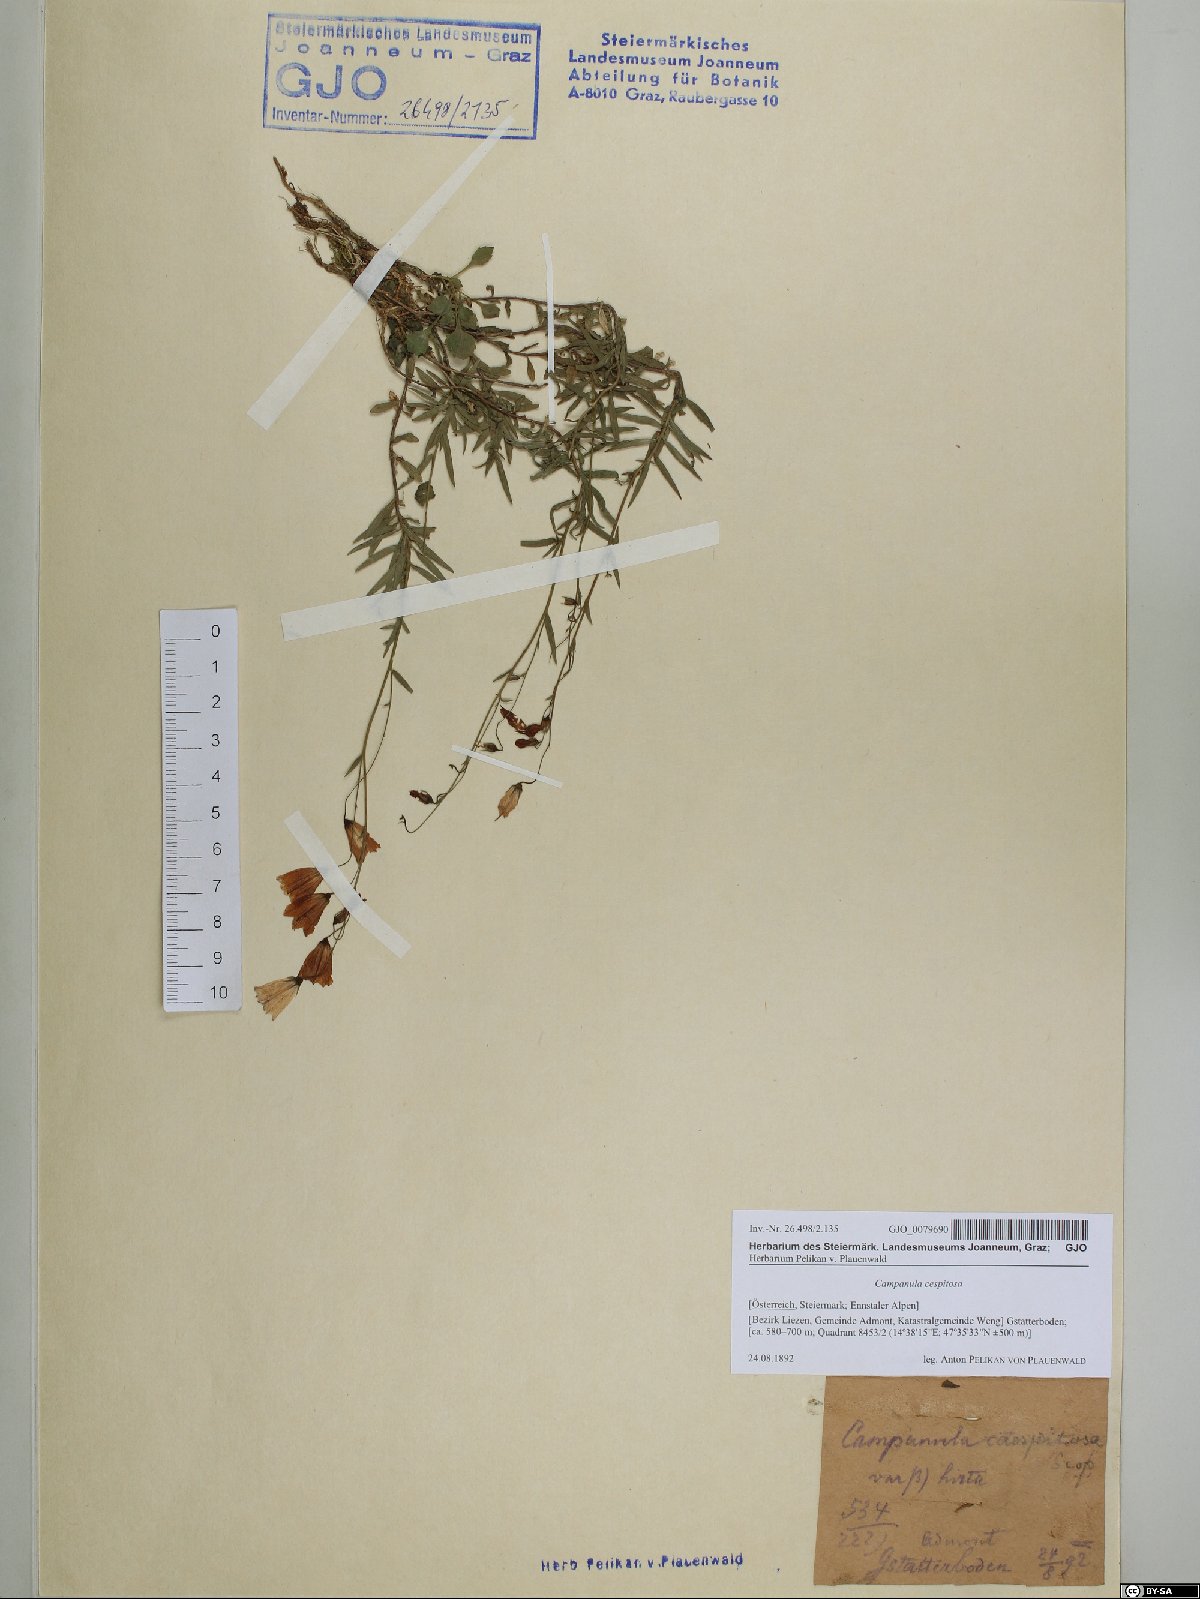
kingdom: Plantae
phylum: Tracheophyta
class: Magnoliopsida
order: Asterales
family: Campanulaceae
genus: Campanula
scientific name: Campanula cespitosa
